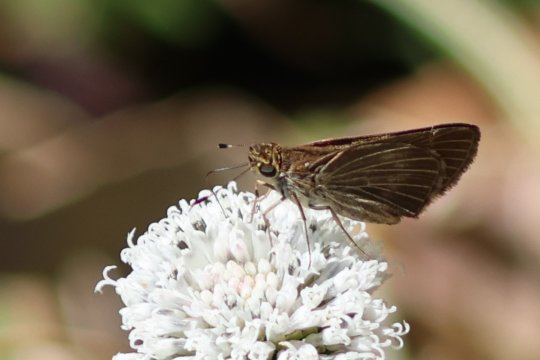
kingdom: Animalia
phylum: Arthropoda
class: Insecta
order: Lepidoptera
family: Hesperiidae
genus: Panoquina
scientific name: Panoquina ocola
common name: Ocola Skipper
